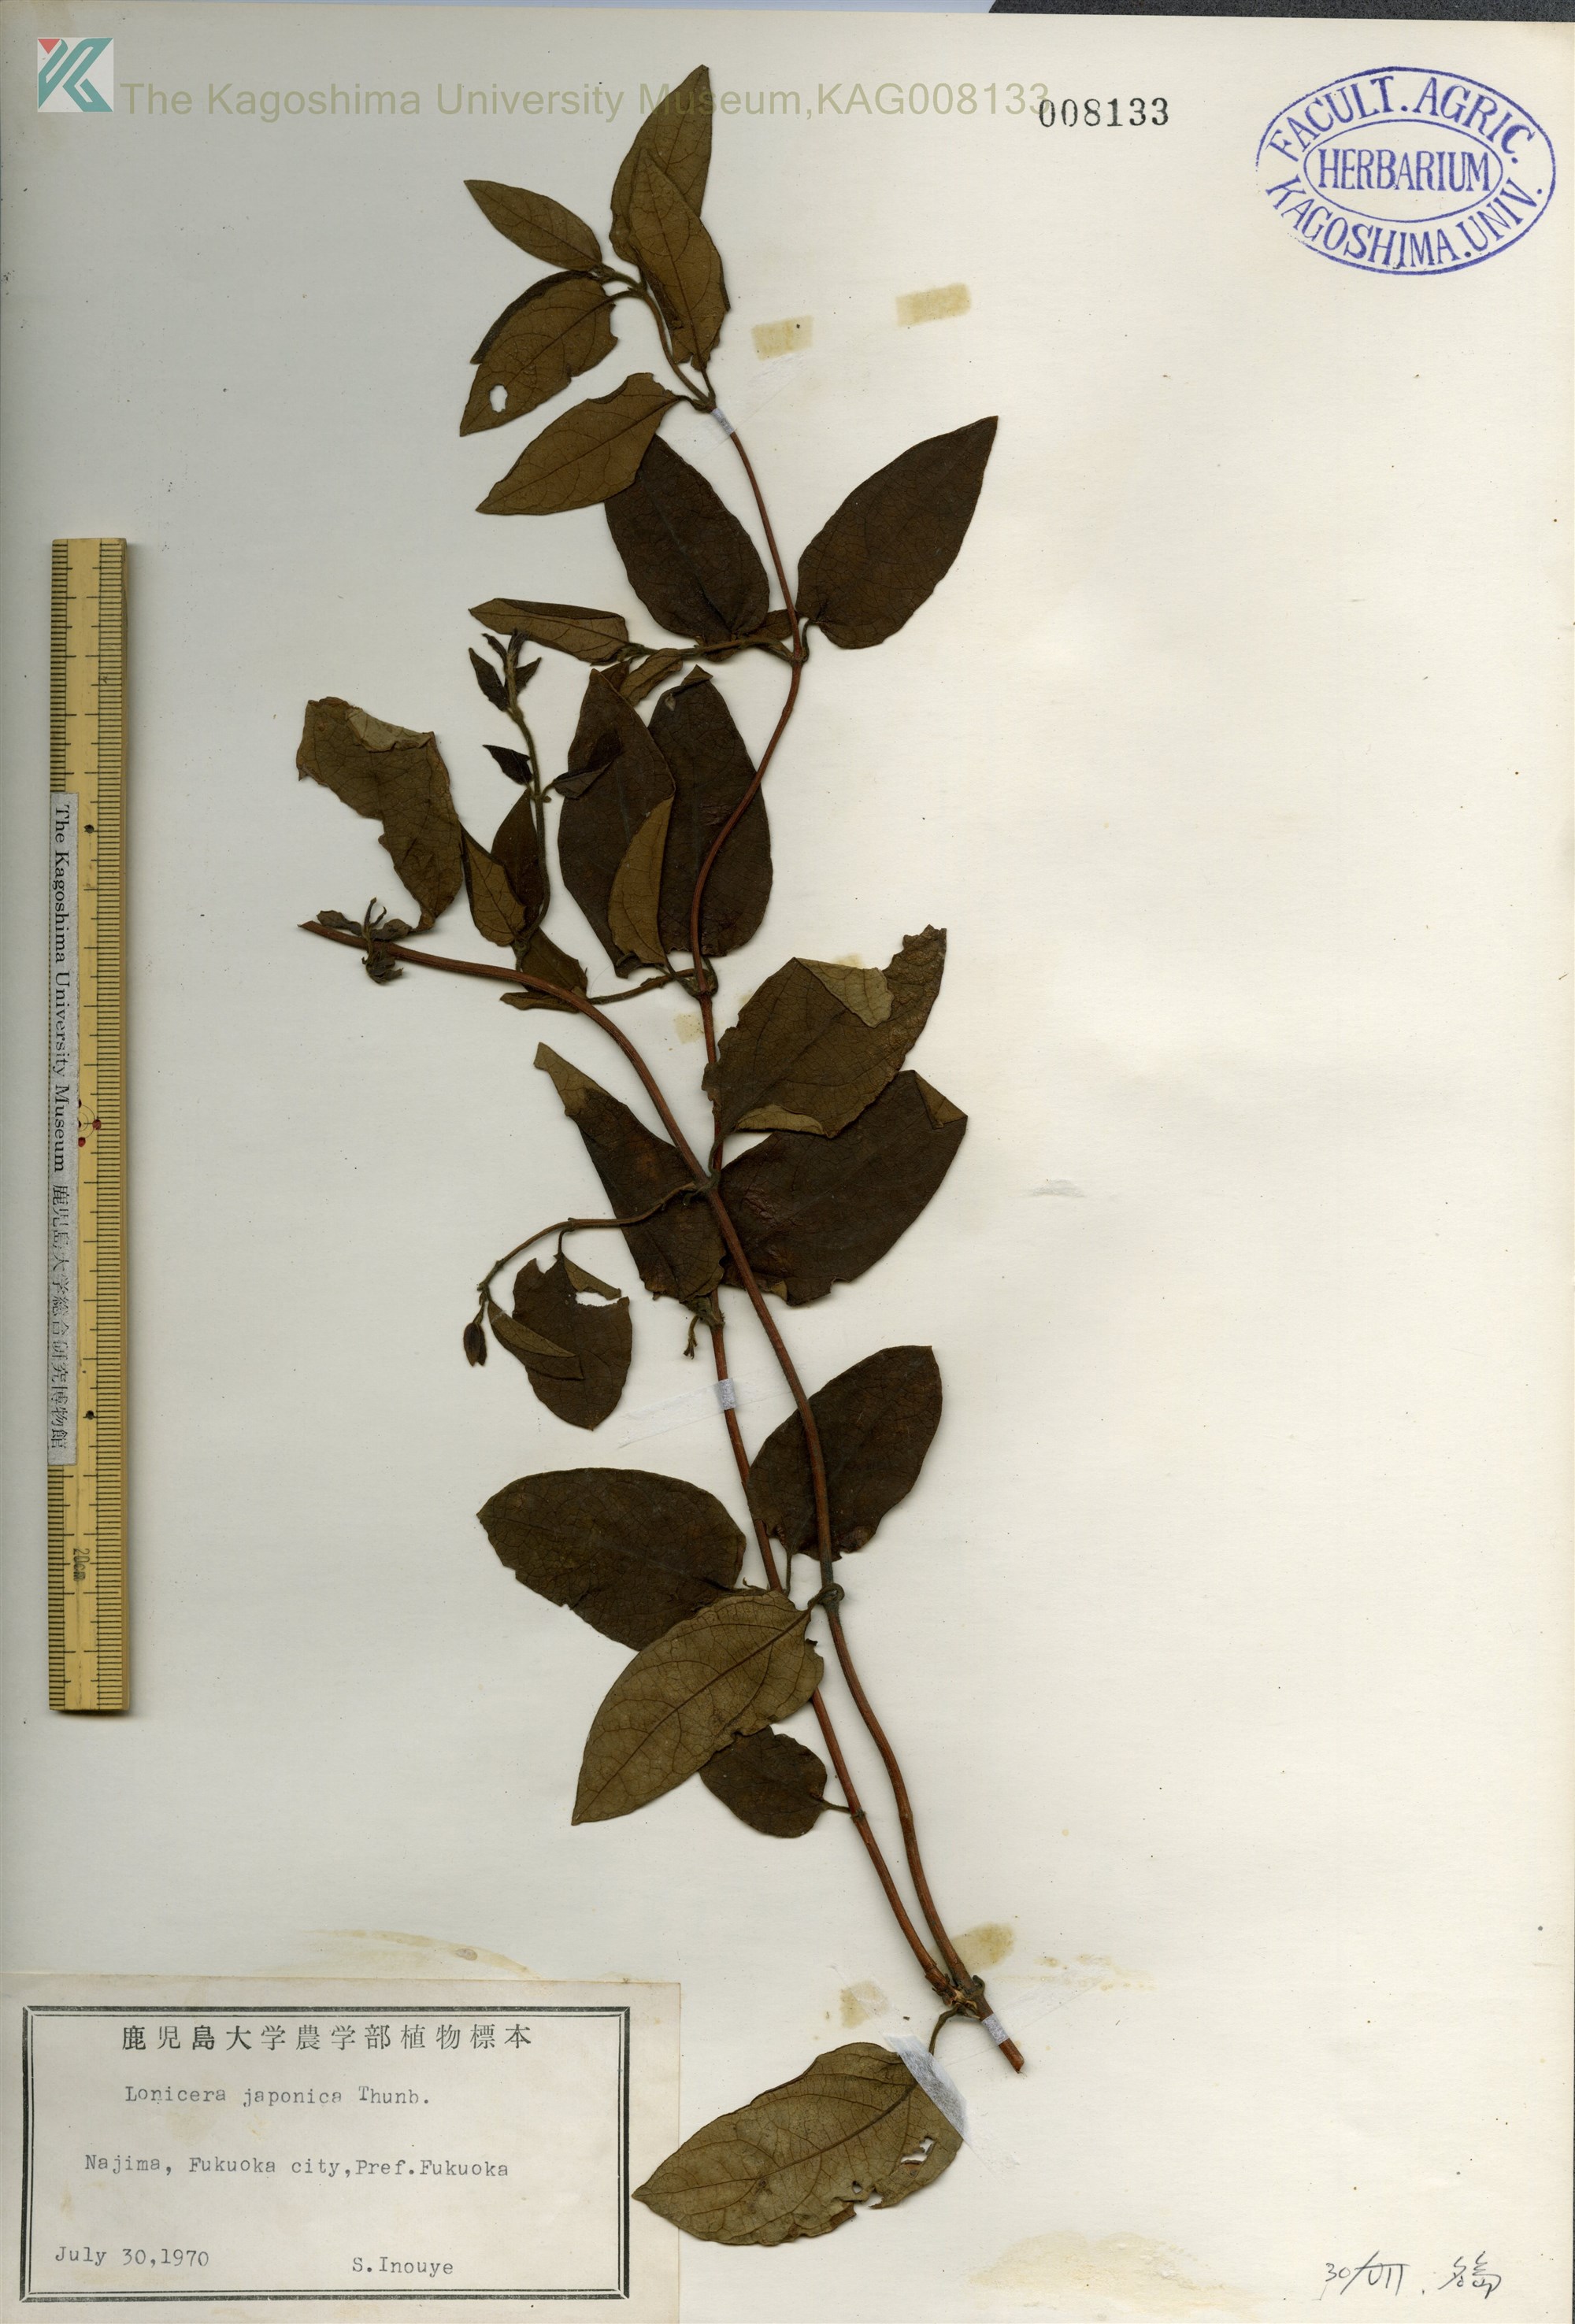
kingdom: Plantae
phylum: Tracheophyta
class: Magnoliopsida
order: Dipsacales
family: Caprifoliaceae
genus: Lonicera
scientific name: Lonicera japonica
